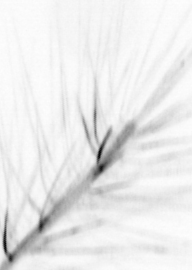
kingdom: Chromista
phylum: Ochrophyta
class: Bacillariophyceae
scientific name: Bacillariophyceae
